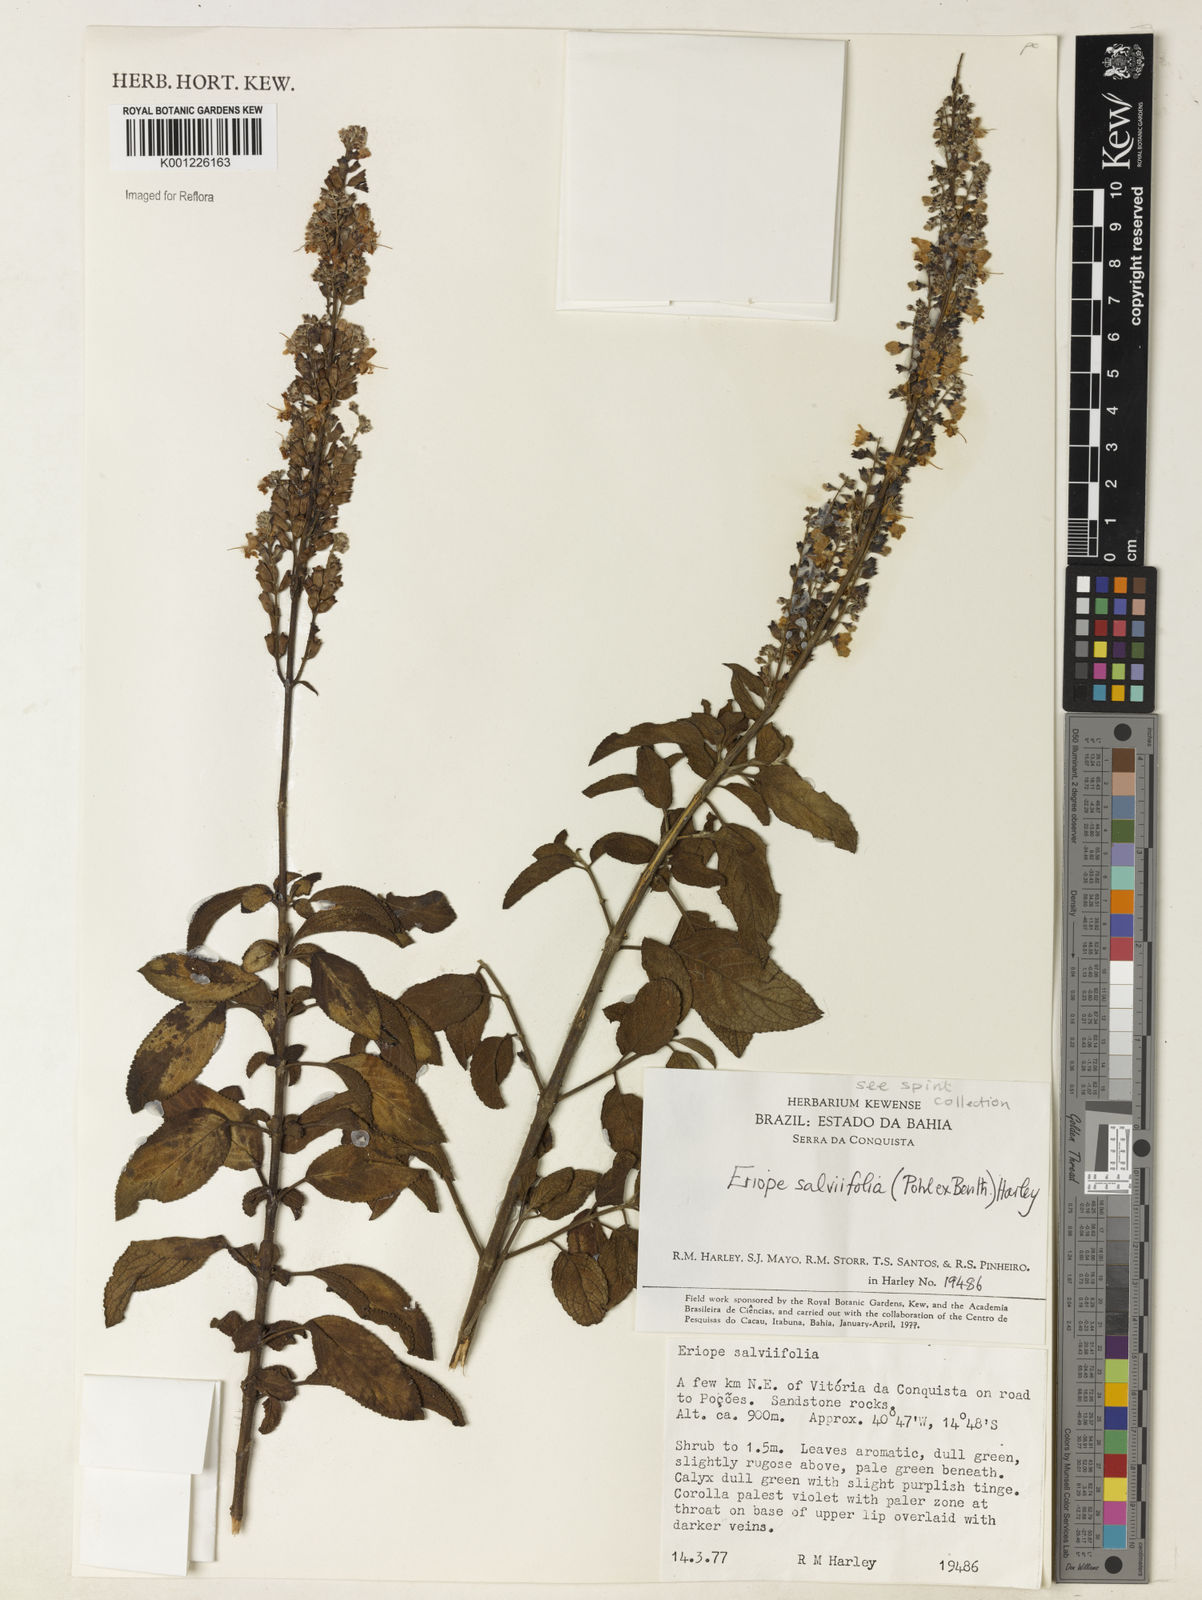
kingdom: Plantae
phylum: Tracheophyta
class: Magnoliopsida
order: Lamiales
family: Lamiaceae
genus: Eriope
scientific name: Eriope salviifolia
